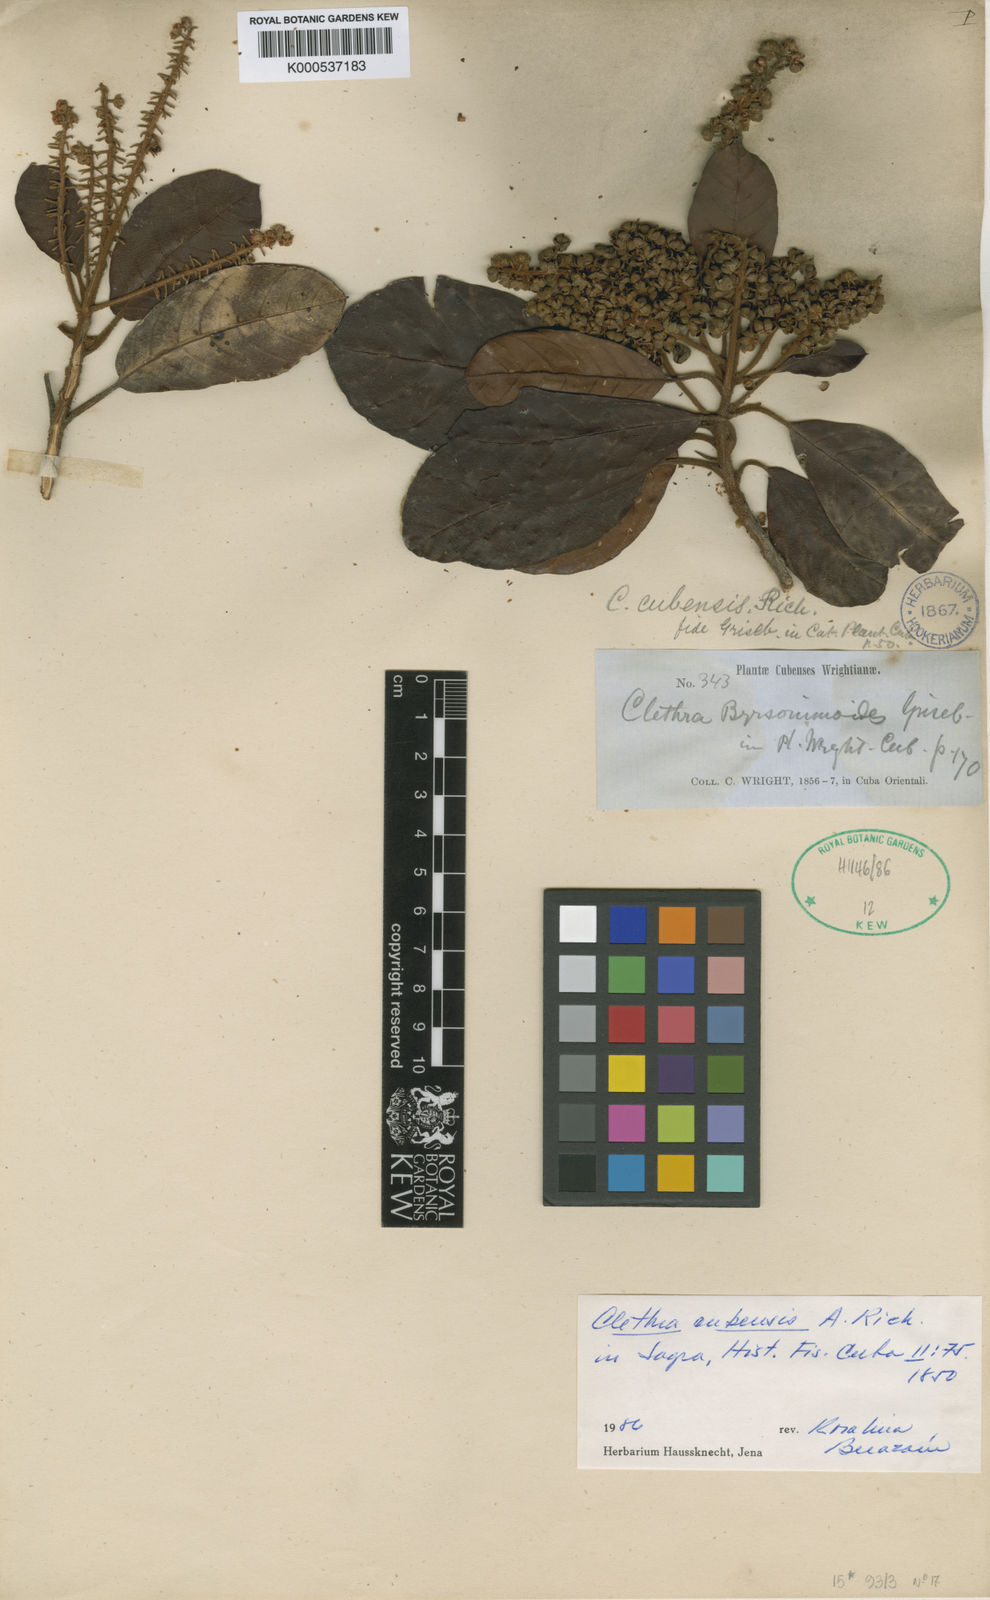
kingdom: Plantae
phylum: Tracheophyta
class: Magnoliopsida
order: Ericales
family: Clethraceae
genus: Clethra
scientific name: Clethra cubensis
